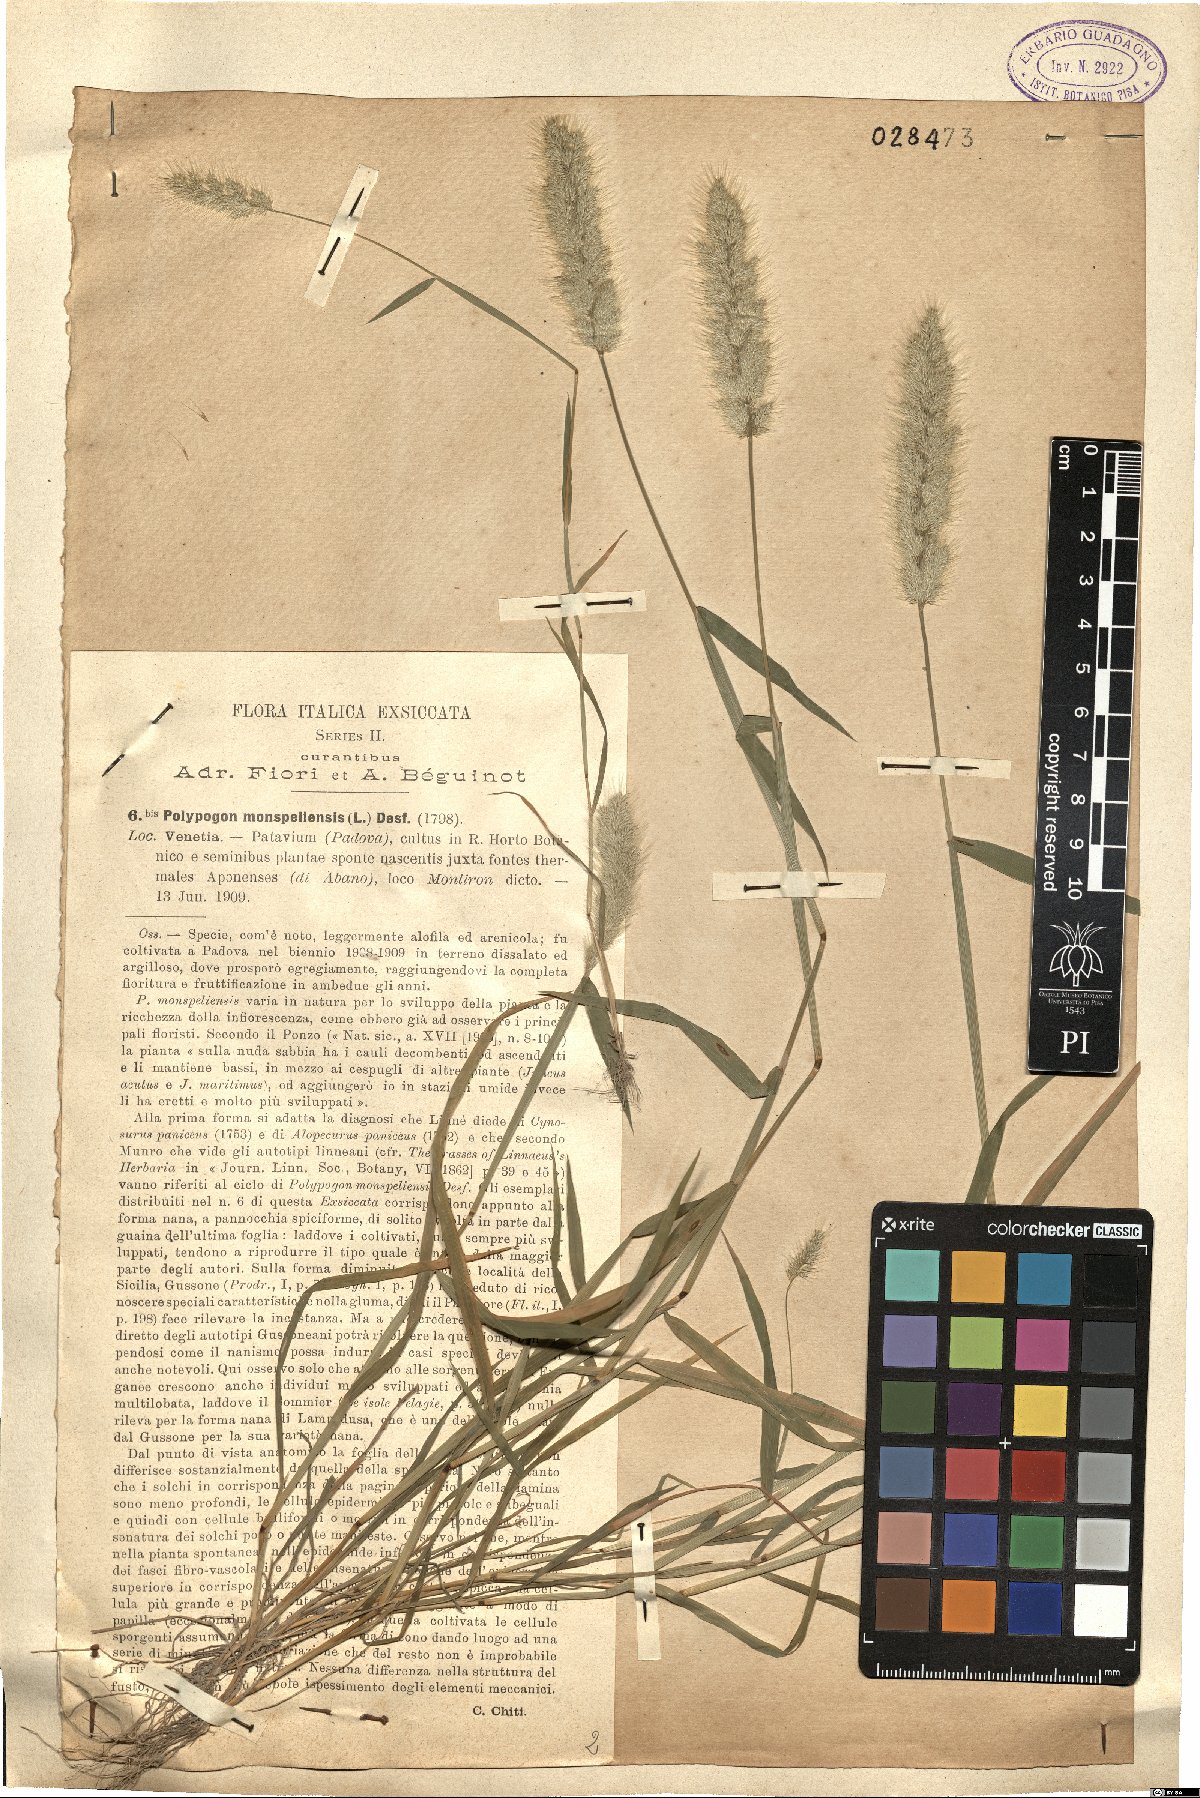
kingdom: Plantae
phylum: Tracheophyta
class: Liliopsida
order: Poales
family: Poaceae
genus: Polypogon
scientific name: Polypogon monspeliensis
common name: Annual rabbitsfoot grass
